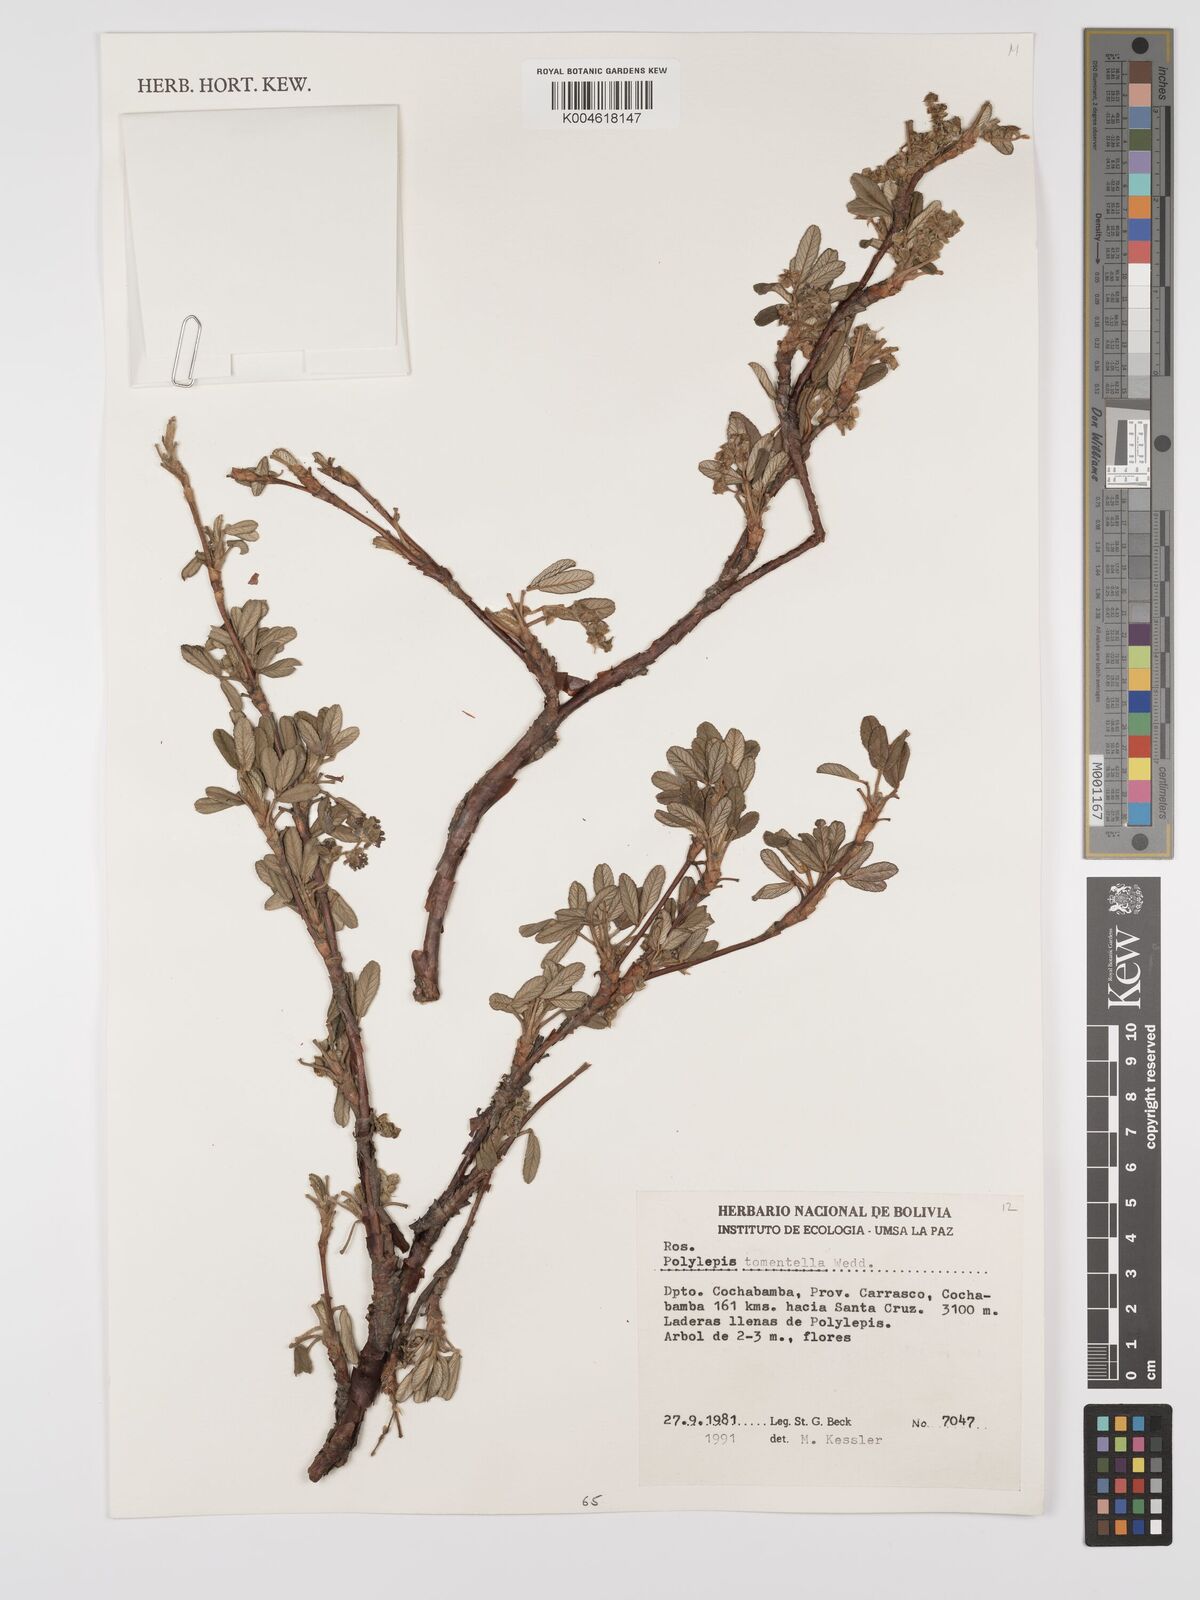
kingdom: Plantae
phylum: Tracheophyta
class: Magnoliopsida
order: Rosales
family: Rosaceae
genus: Polylepis
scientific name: Polylepis tomentella
